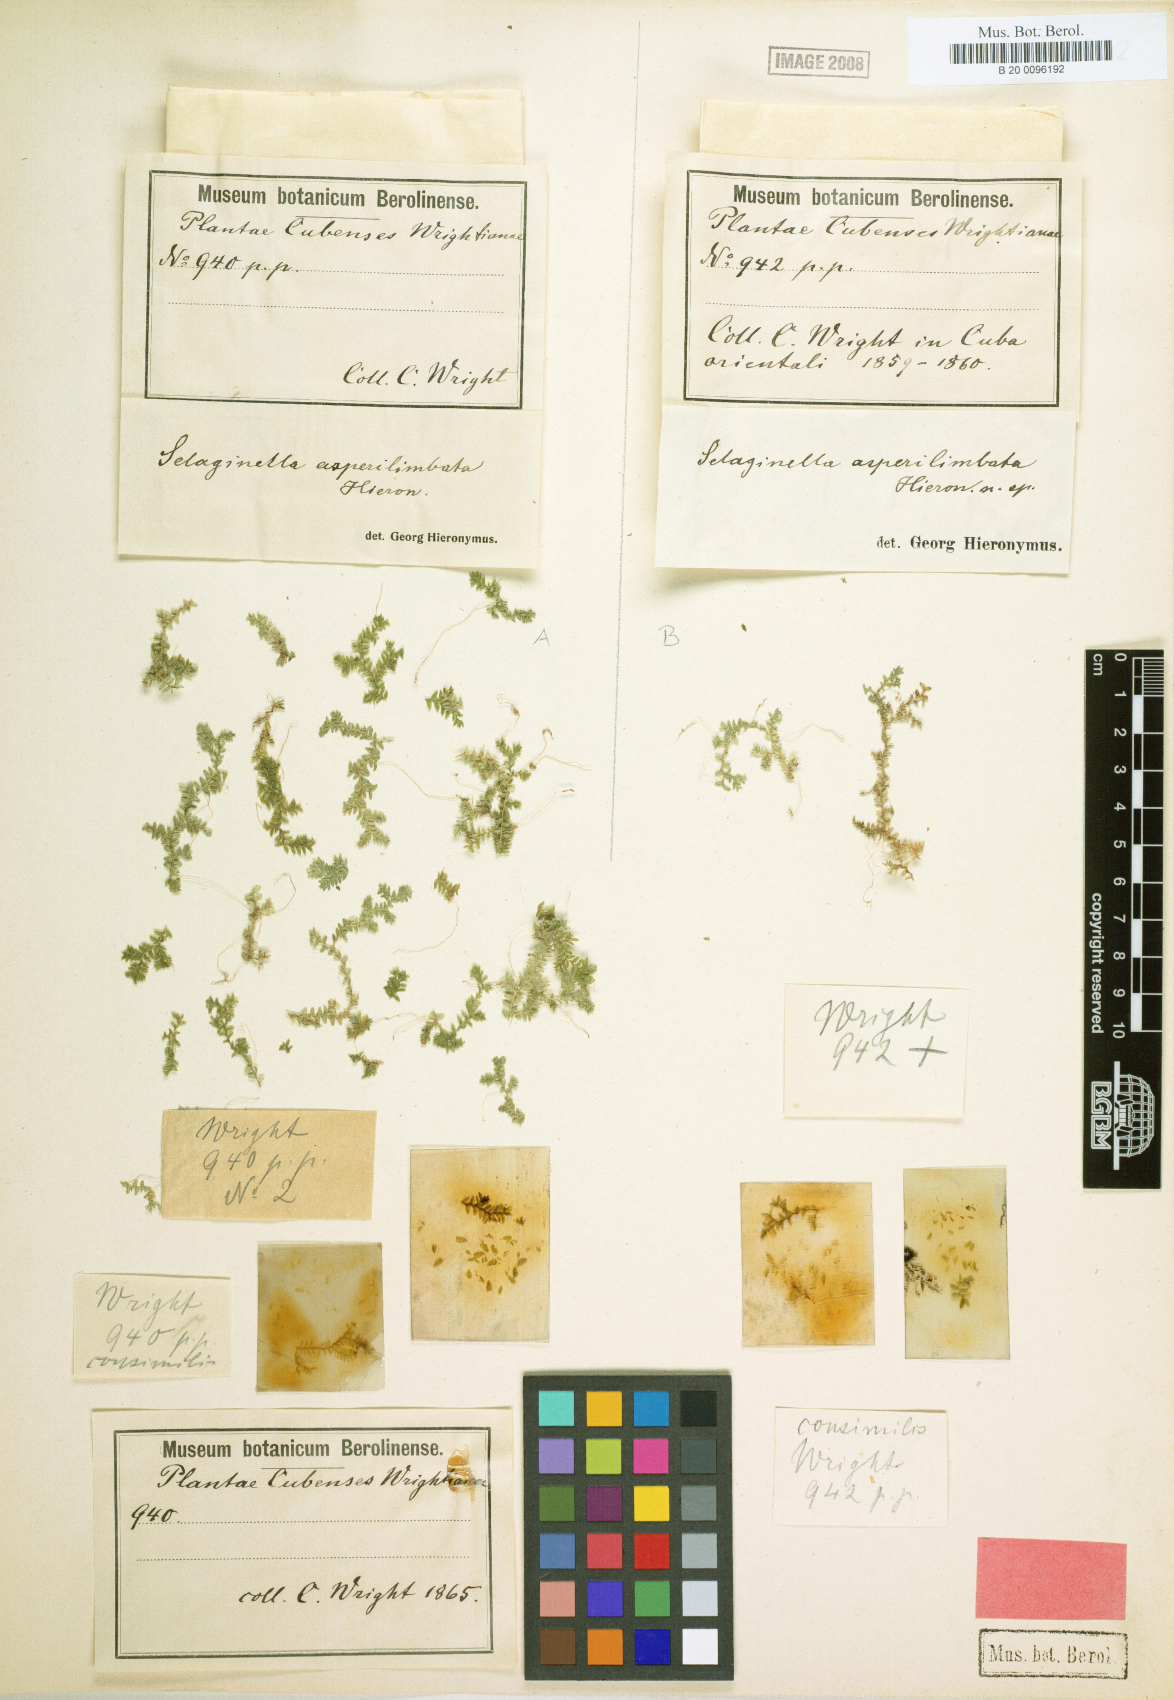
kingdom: Plantae
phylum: Tracheophyta
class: Lycopodiopsida
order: Selaginellales
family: Selaginellaceae
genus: Selaginella
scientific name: Selaginella urquiolae
